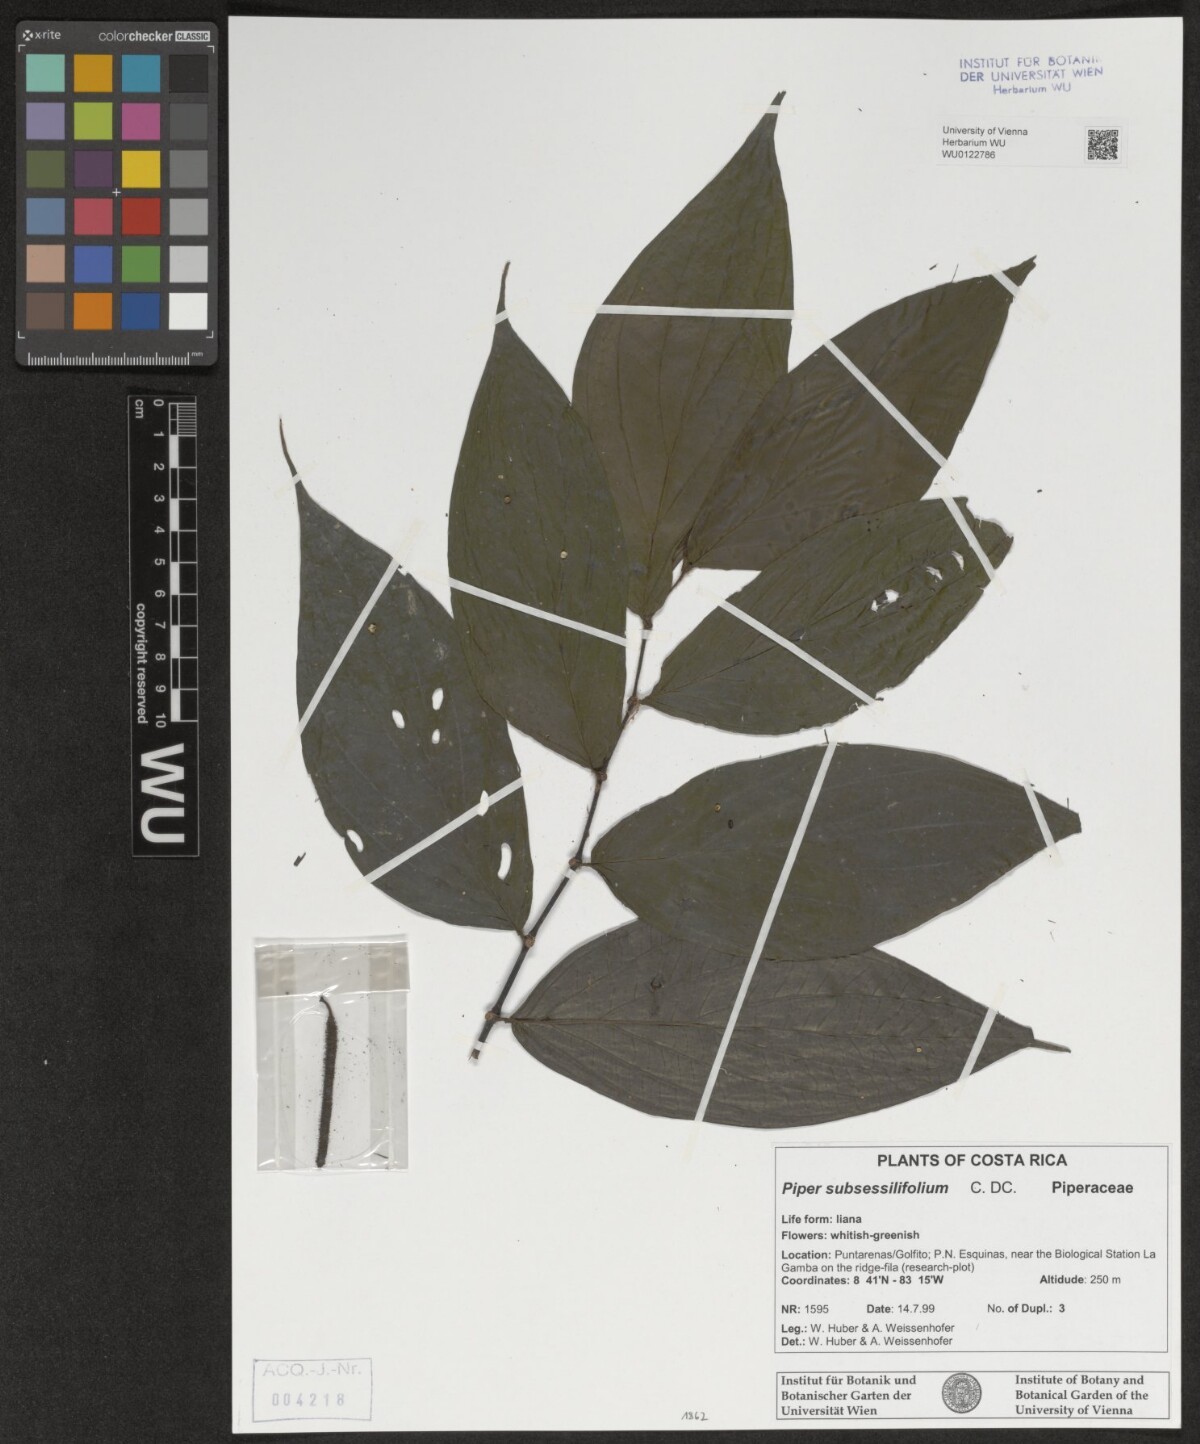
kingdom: Plantae
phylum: Tracheophyta
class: Magnoliopsida
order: Piperales
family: Piperaceae
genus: Piper
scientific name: Piper subsessilifolium
